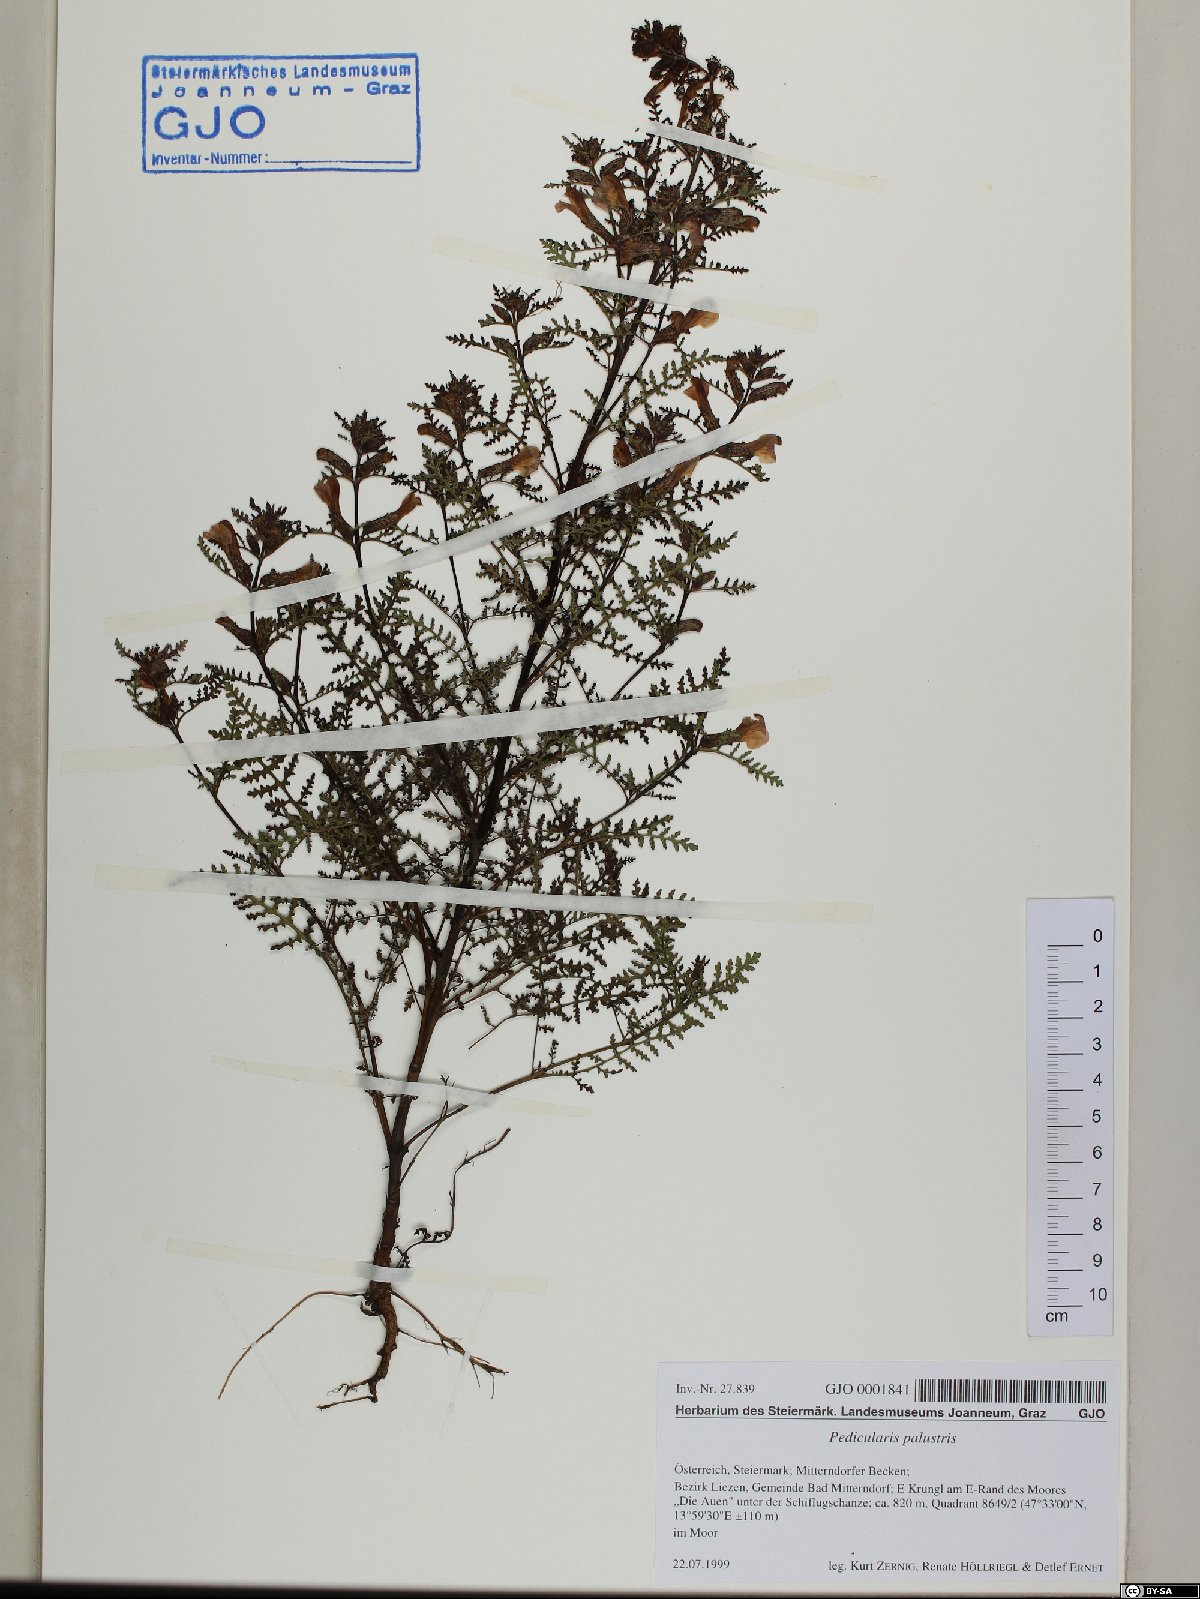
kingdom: Plantae
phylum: Tracheophyta
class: Magnoliopsida
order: Lamiales
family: Orobanchaceae
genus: Pedicularis
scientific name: Pedicularis palustris
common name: Marsh lousewort
